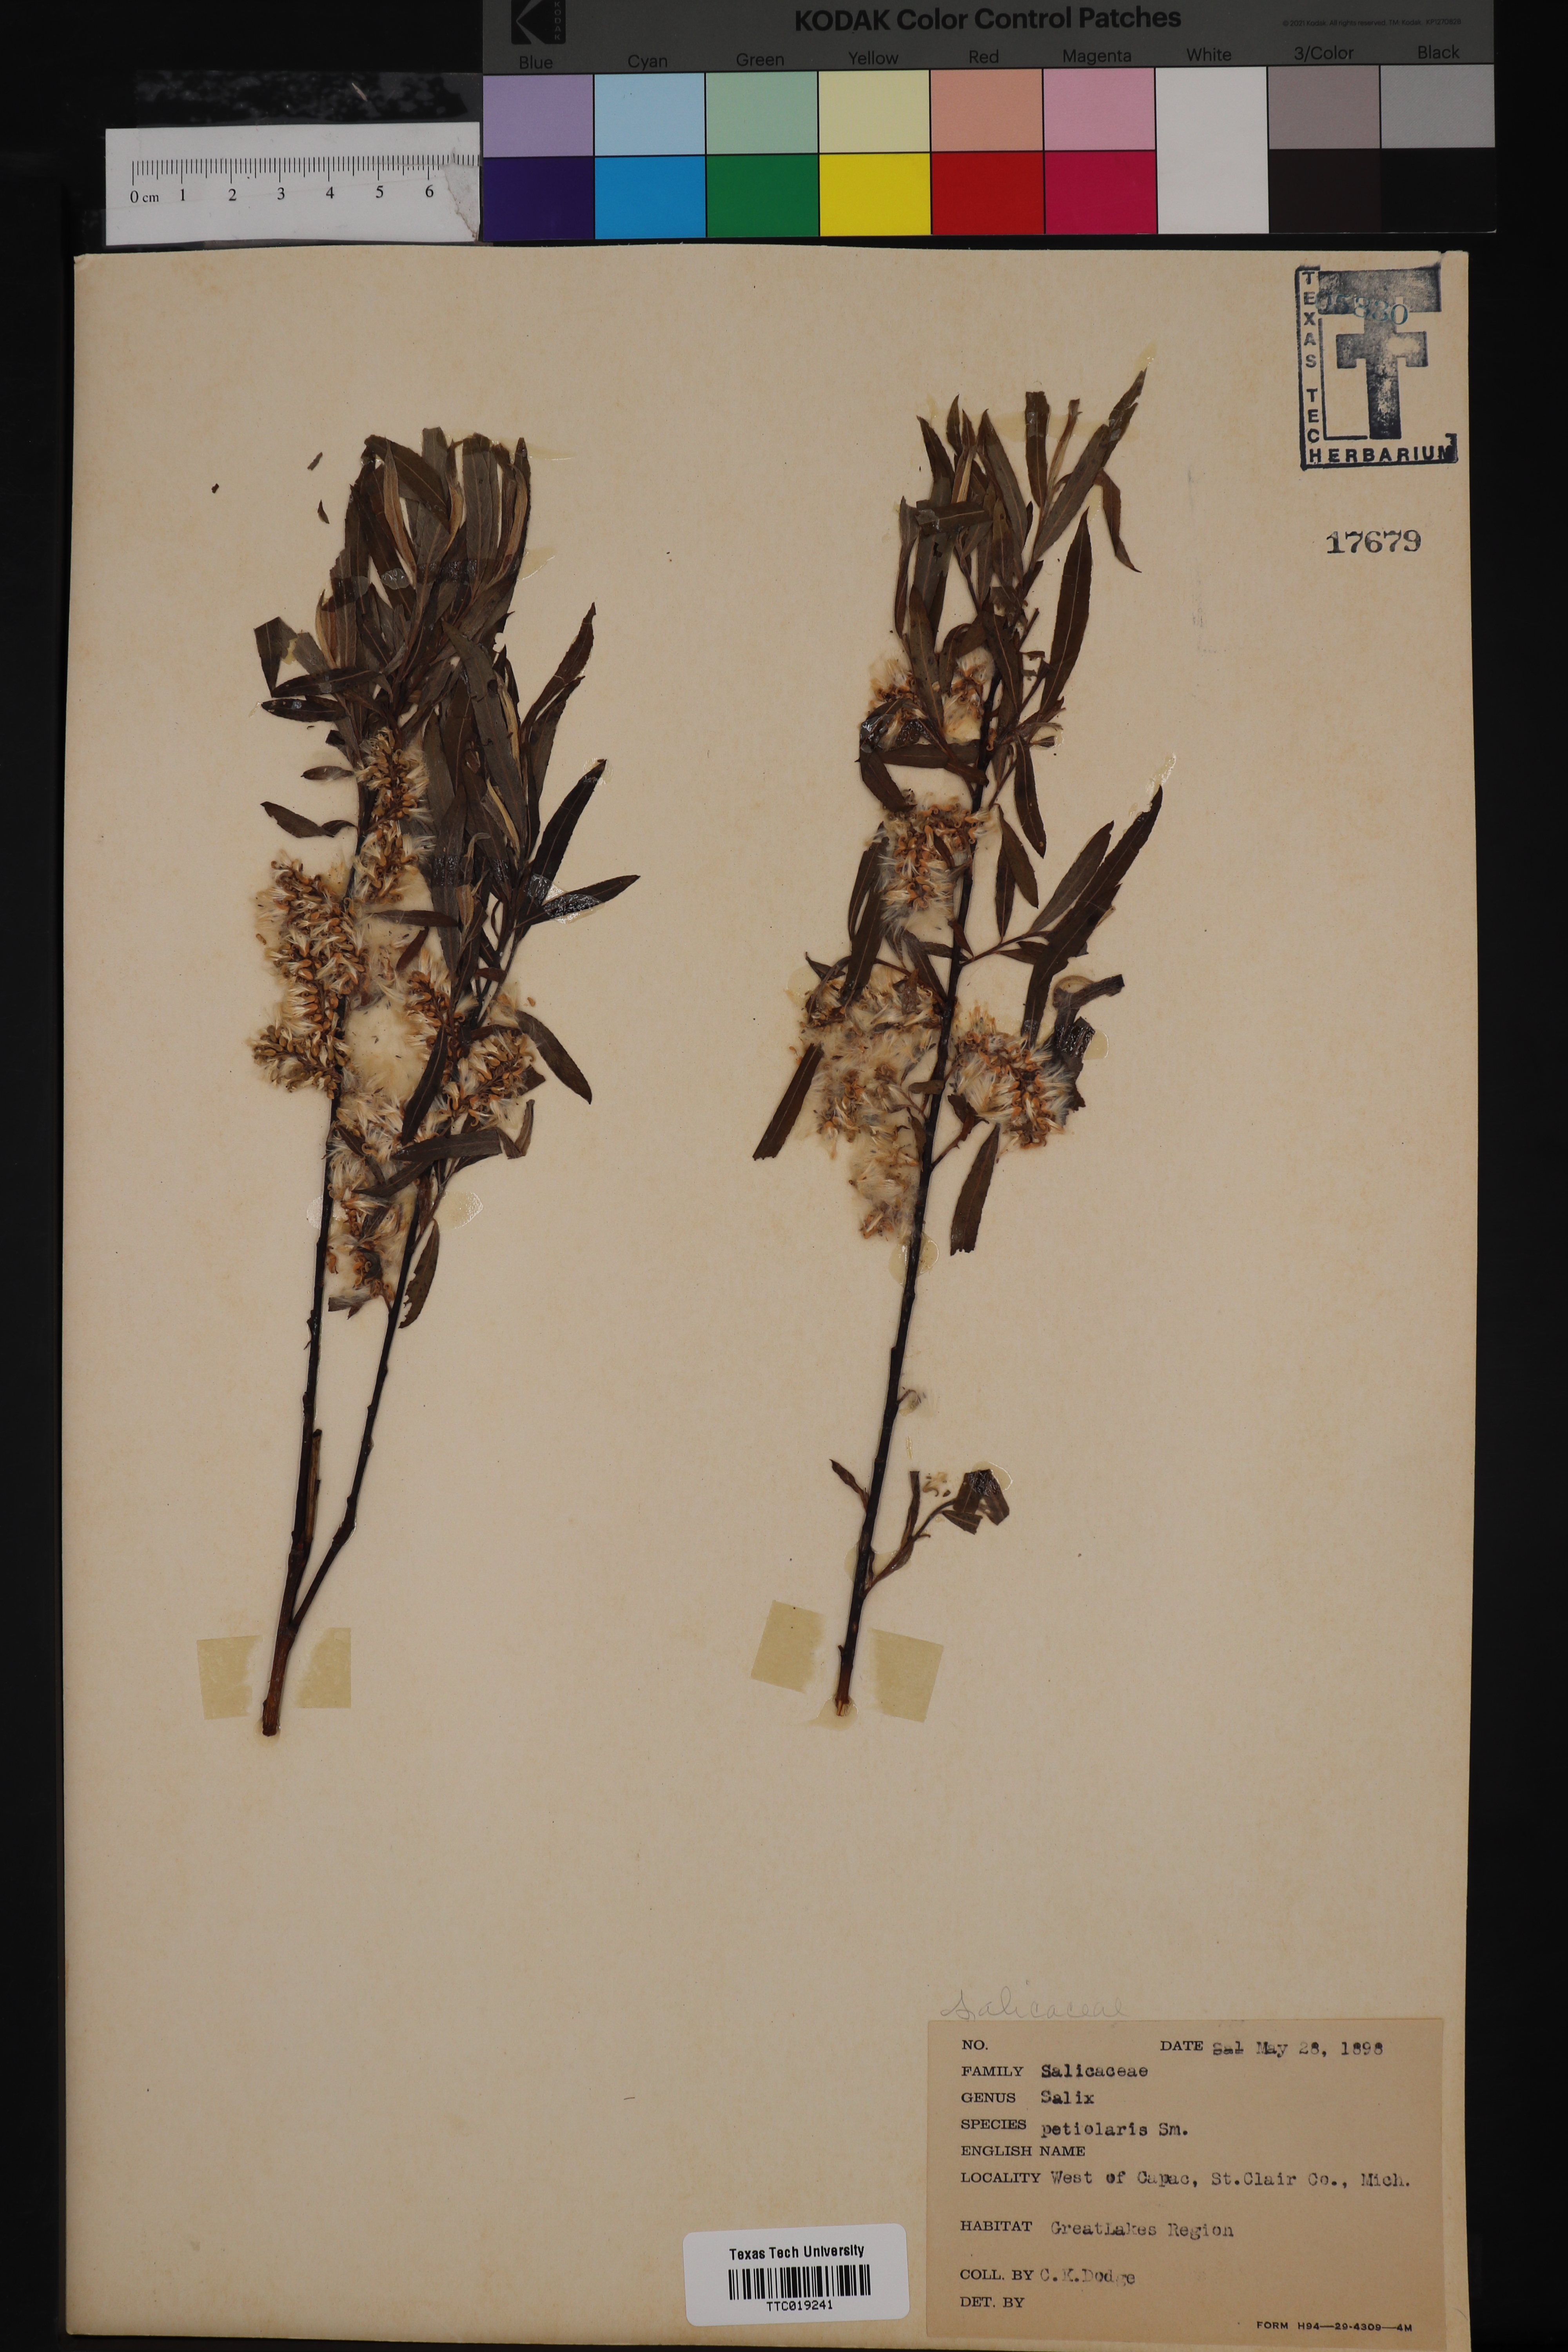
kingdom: Plantae
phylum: Tracheophyta
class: Magnoliopsida
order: Malpighiales
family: Salicaceae
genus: Salix
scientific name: Salix petiolaris
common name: Slender willow
